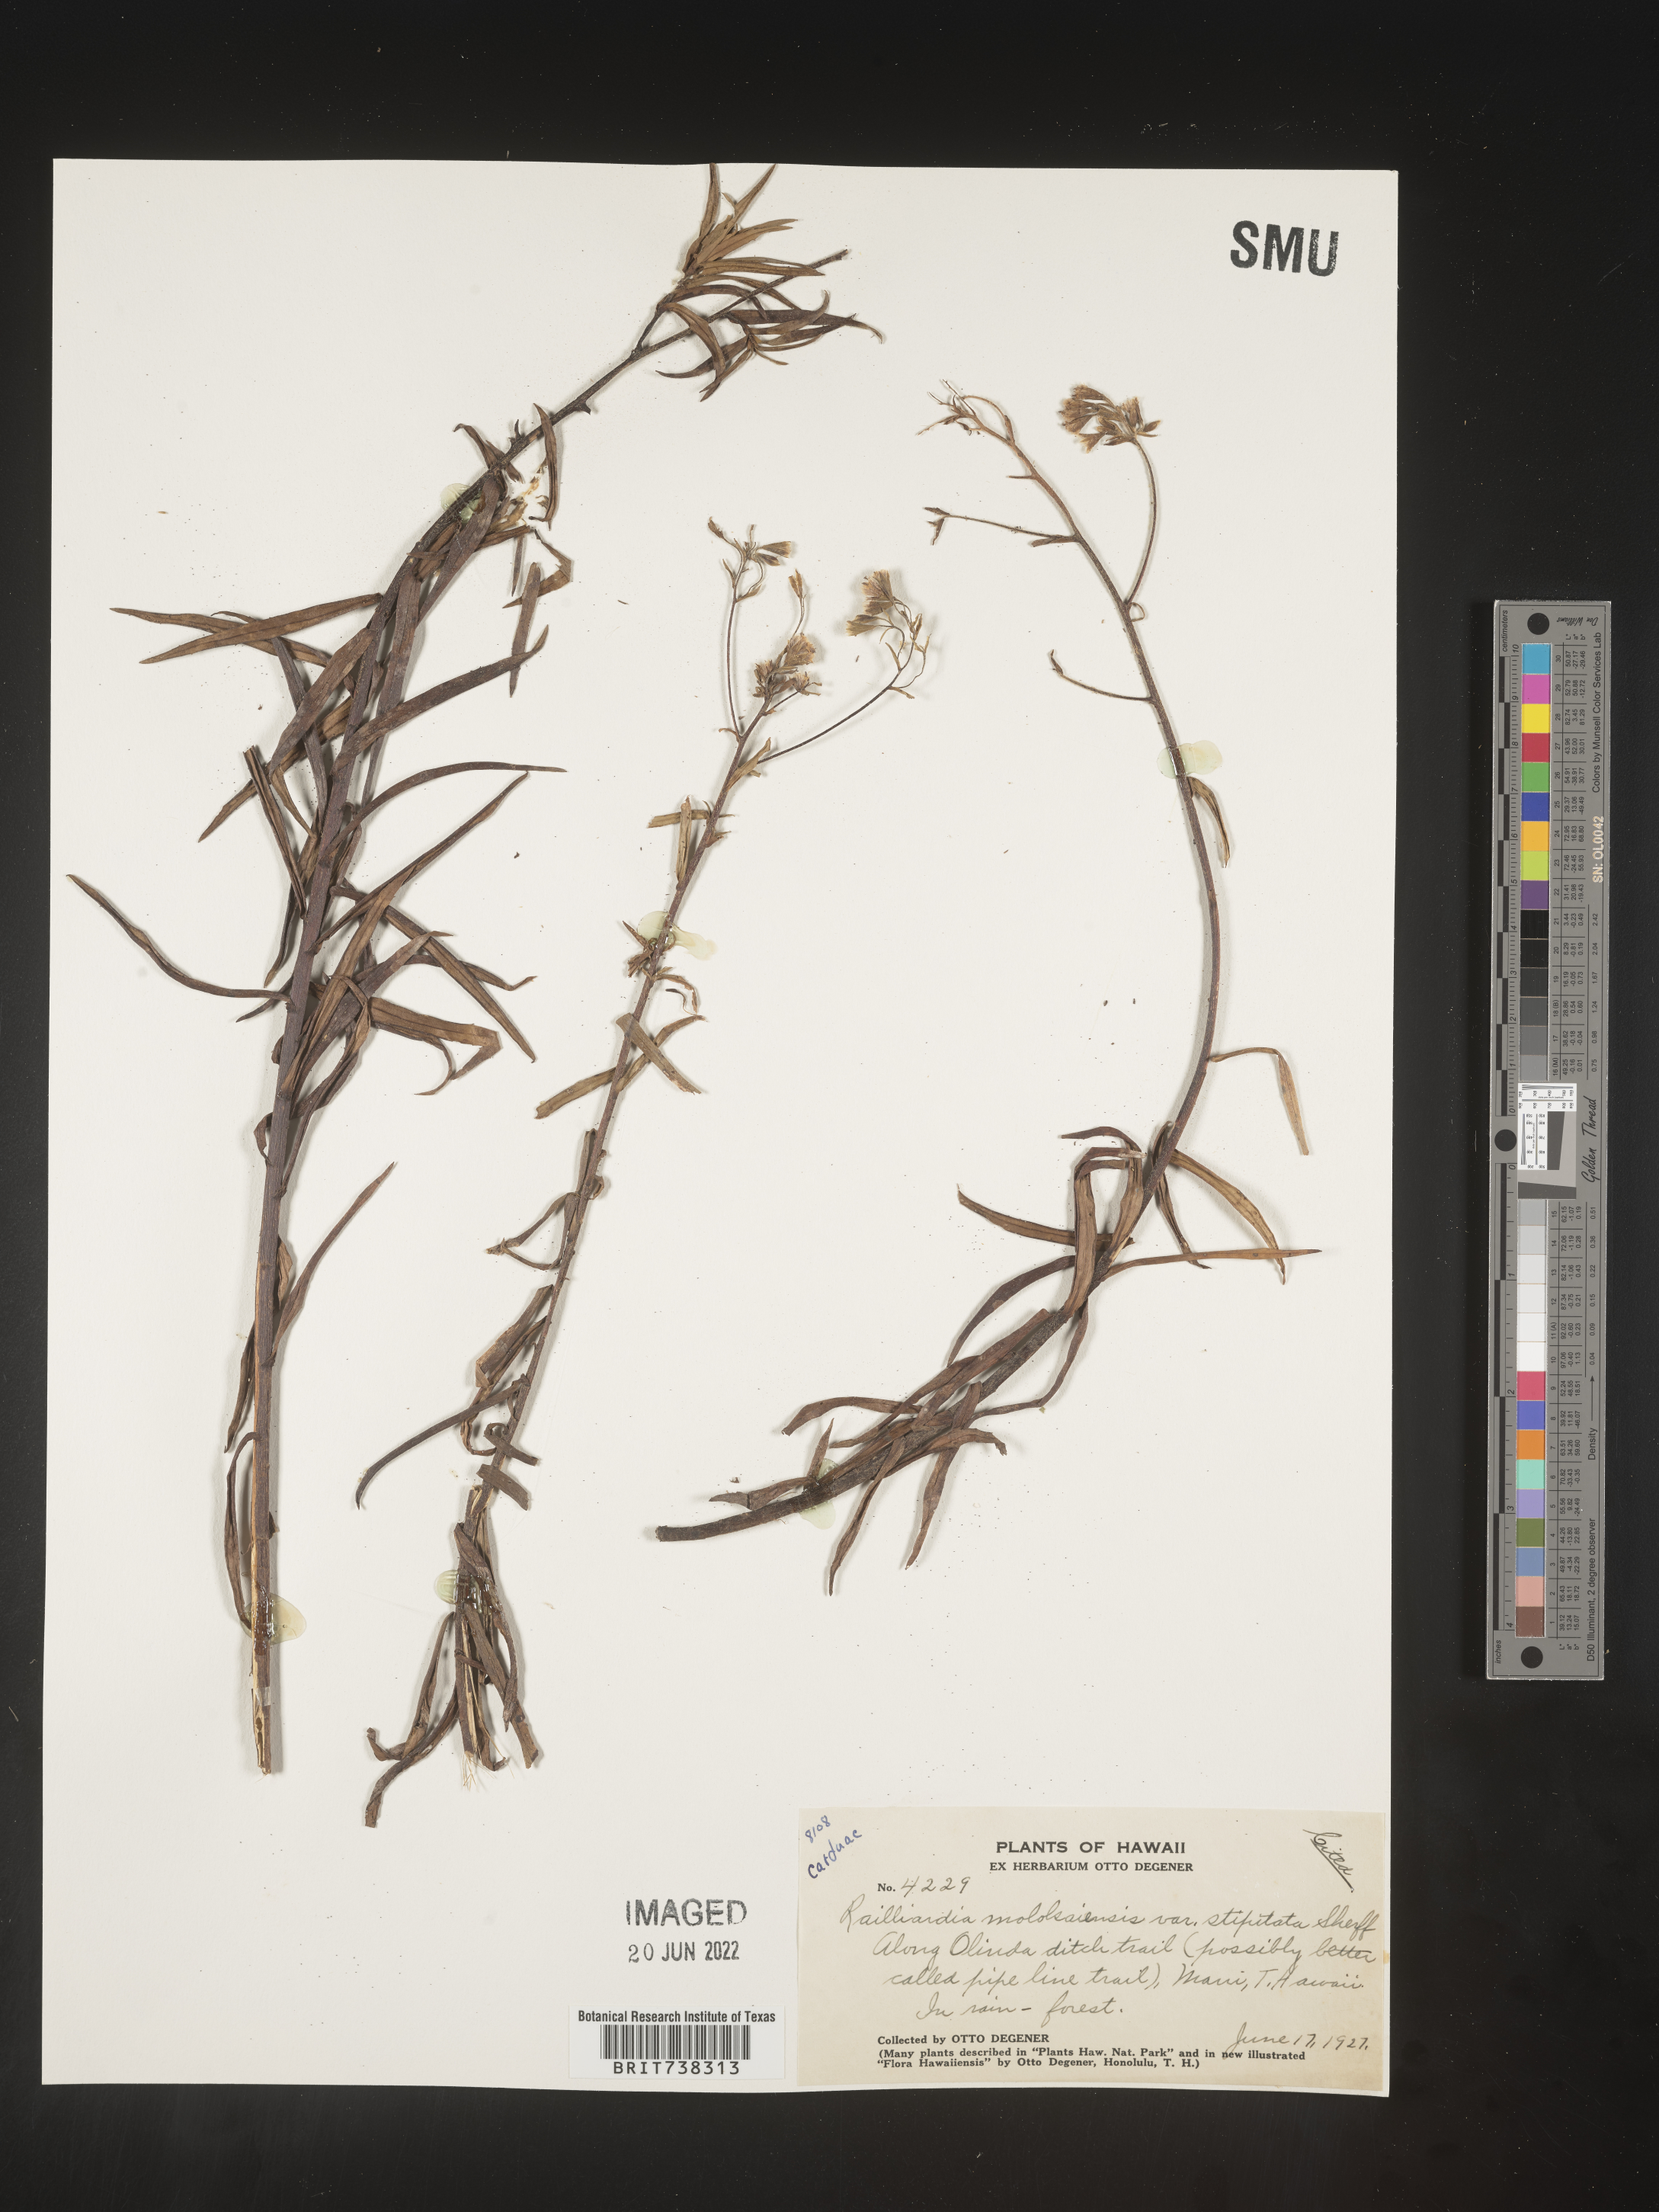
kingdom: Plantae
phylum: Tracheophyta
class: Magnoliopsida
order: Asterales
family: Asteraceae
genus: Dubautia
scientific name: Dubautia
